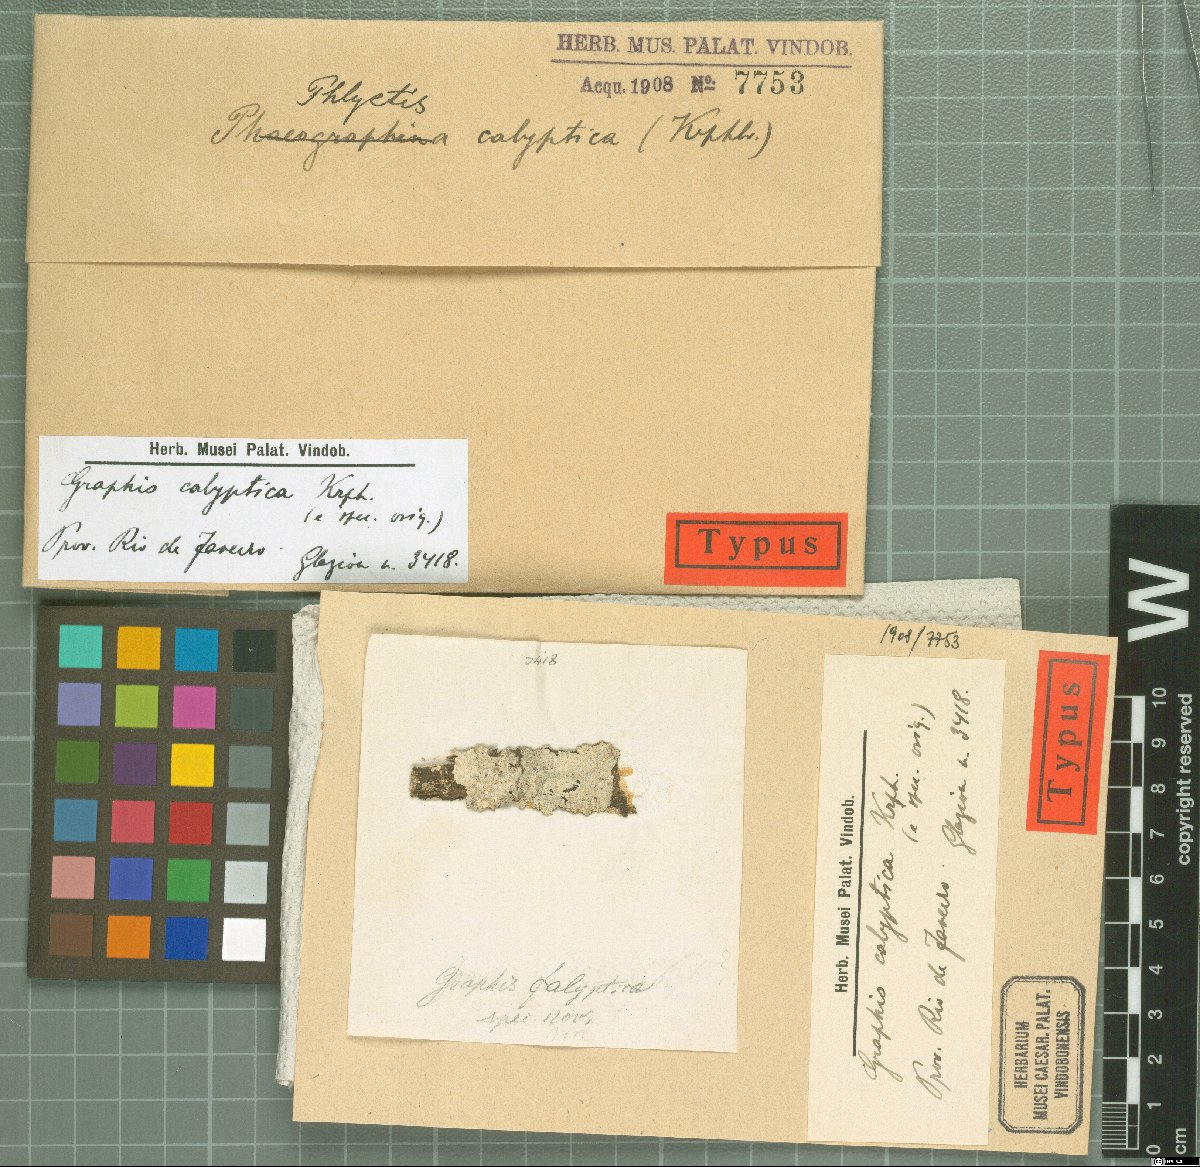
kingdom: Fungi
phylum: Ascomycota
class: Lecanoromycetes
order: Ostropales
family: Graphidaceae
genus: Graphis
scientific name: Graphis
